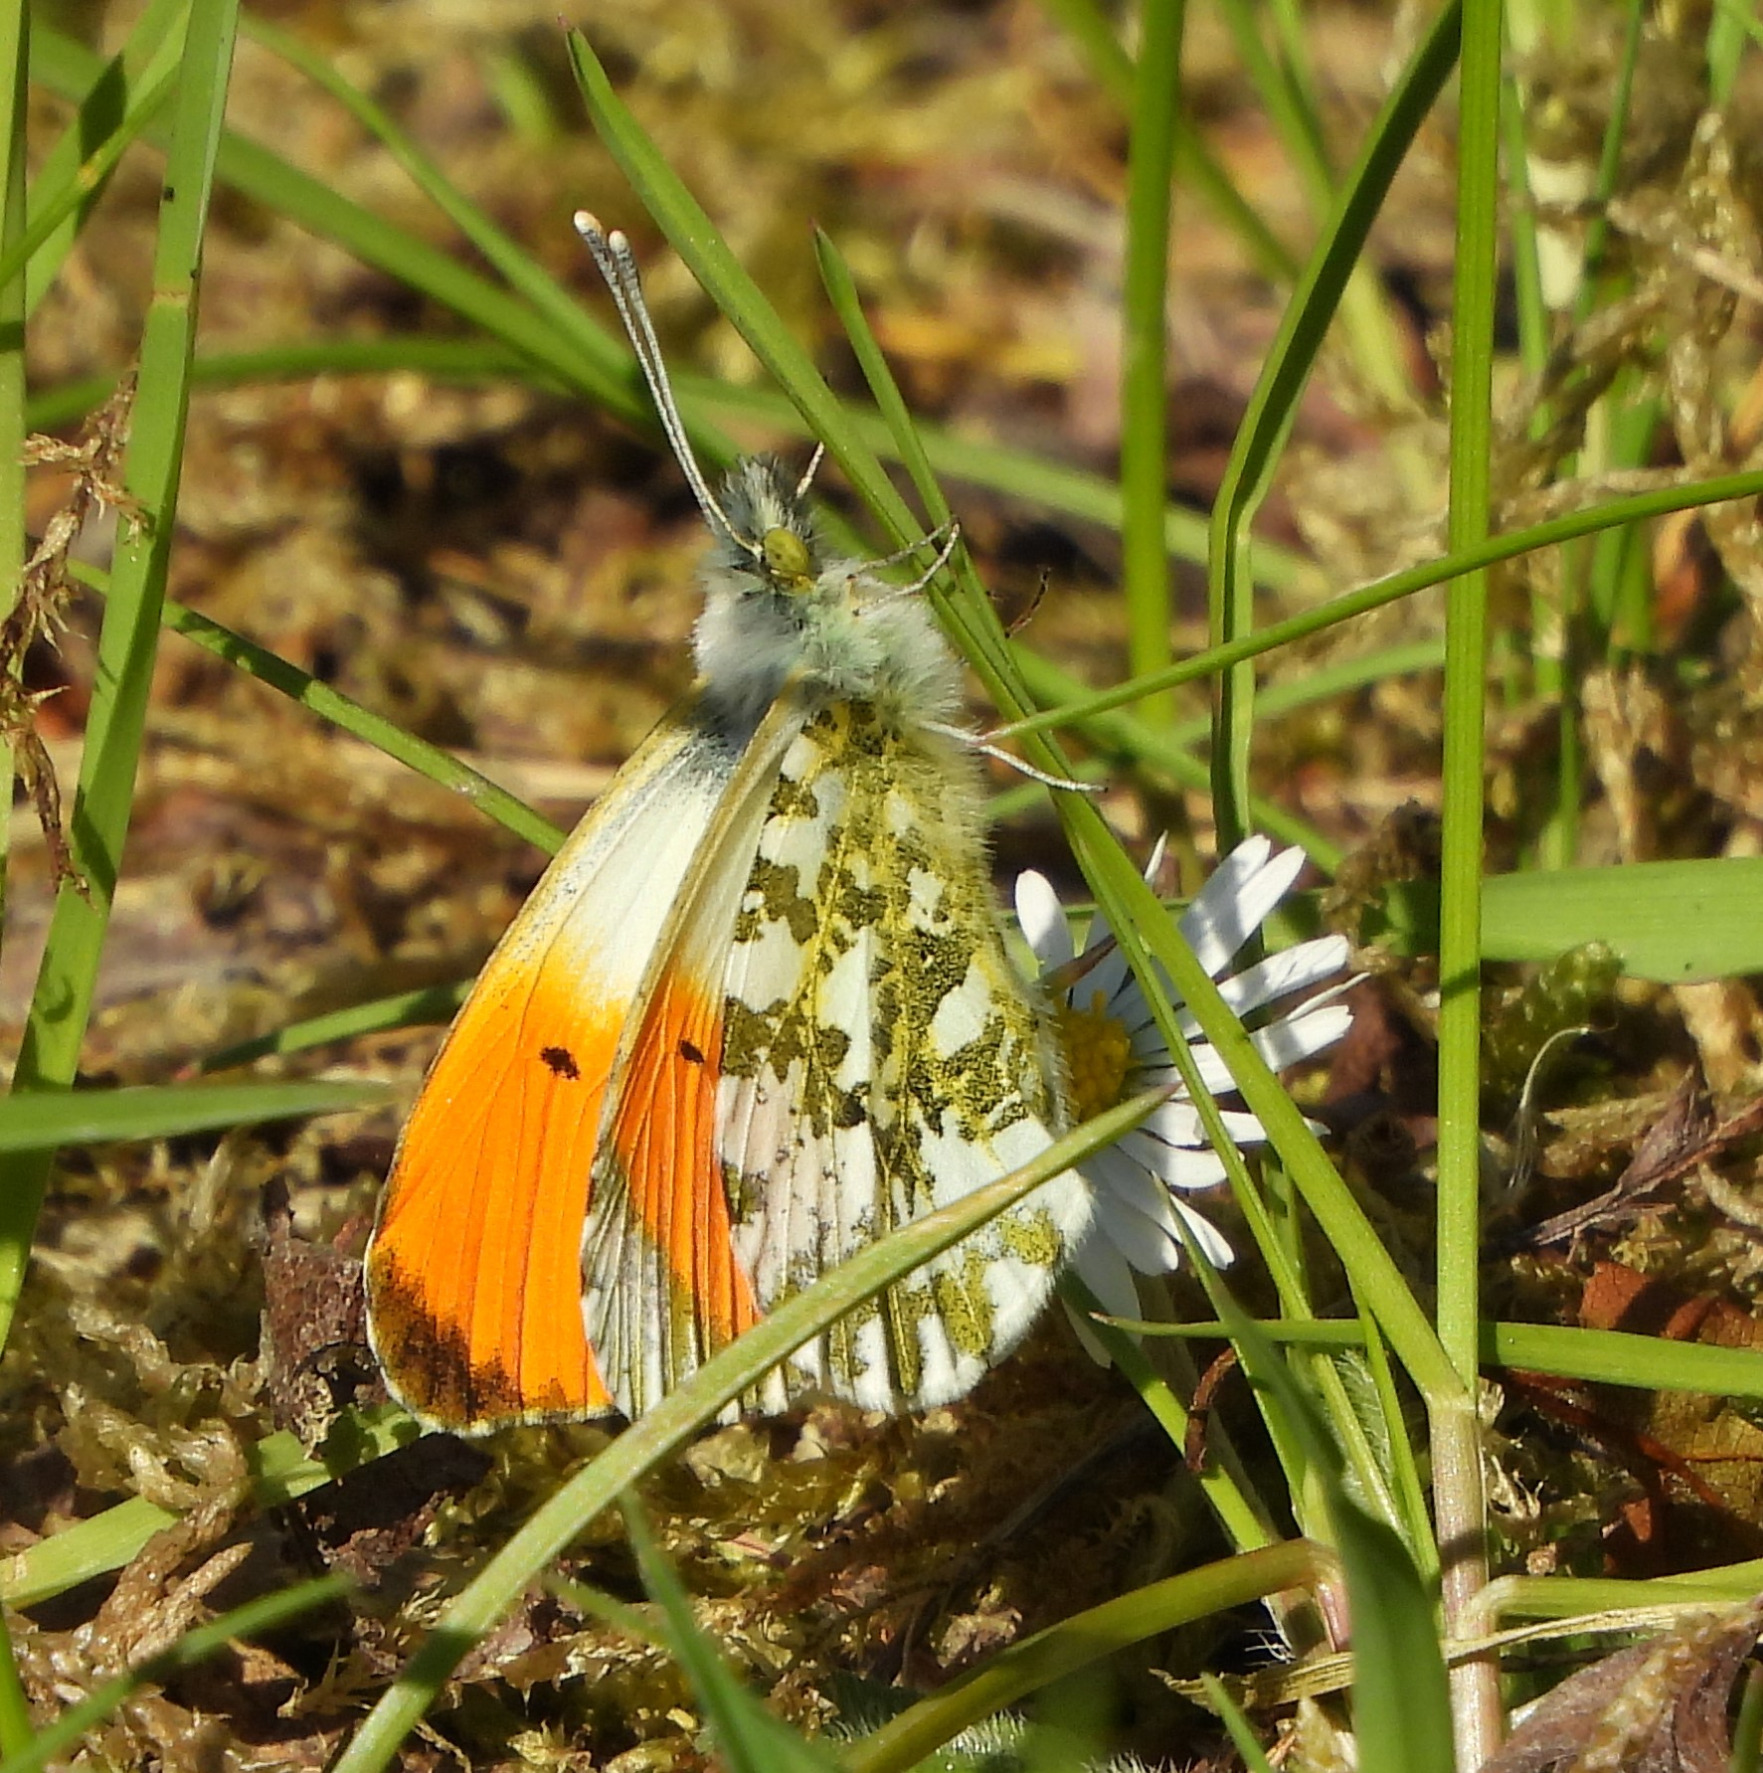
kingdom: Animalia
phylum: Arthropoda
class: Insecta
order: Lepidoptera
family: Pieridae
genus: Anthocharis
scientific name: Anthocharis cardamines
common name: Aurora
